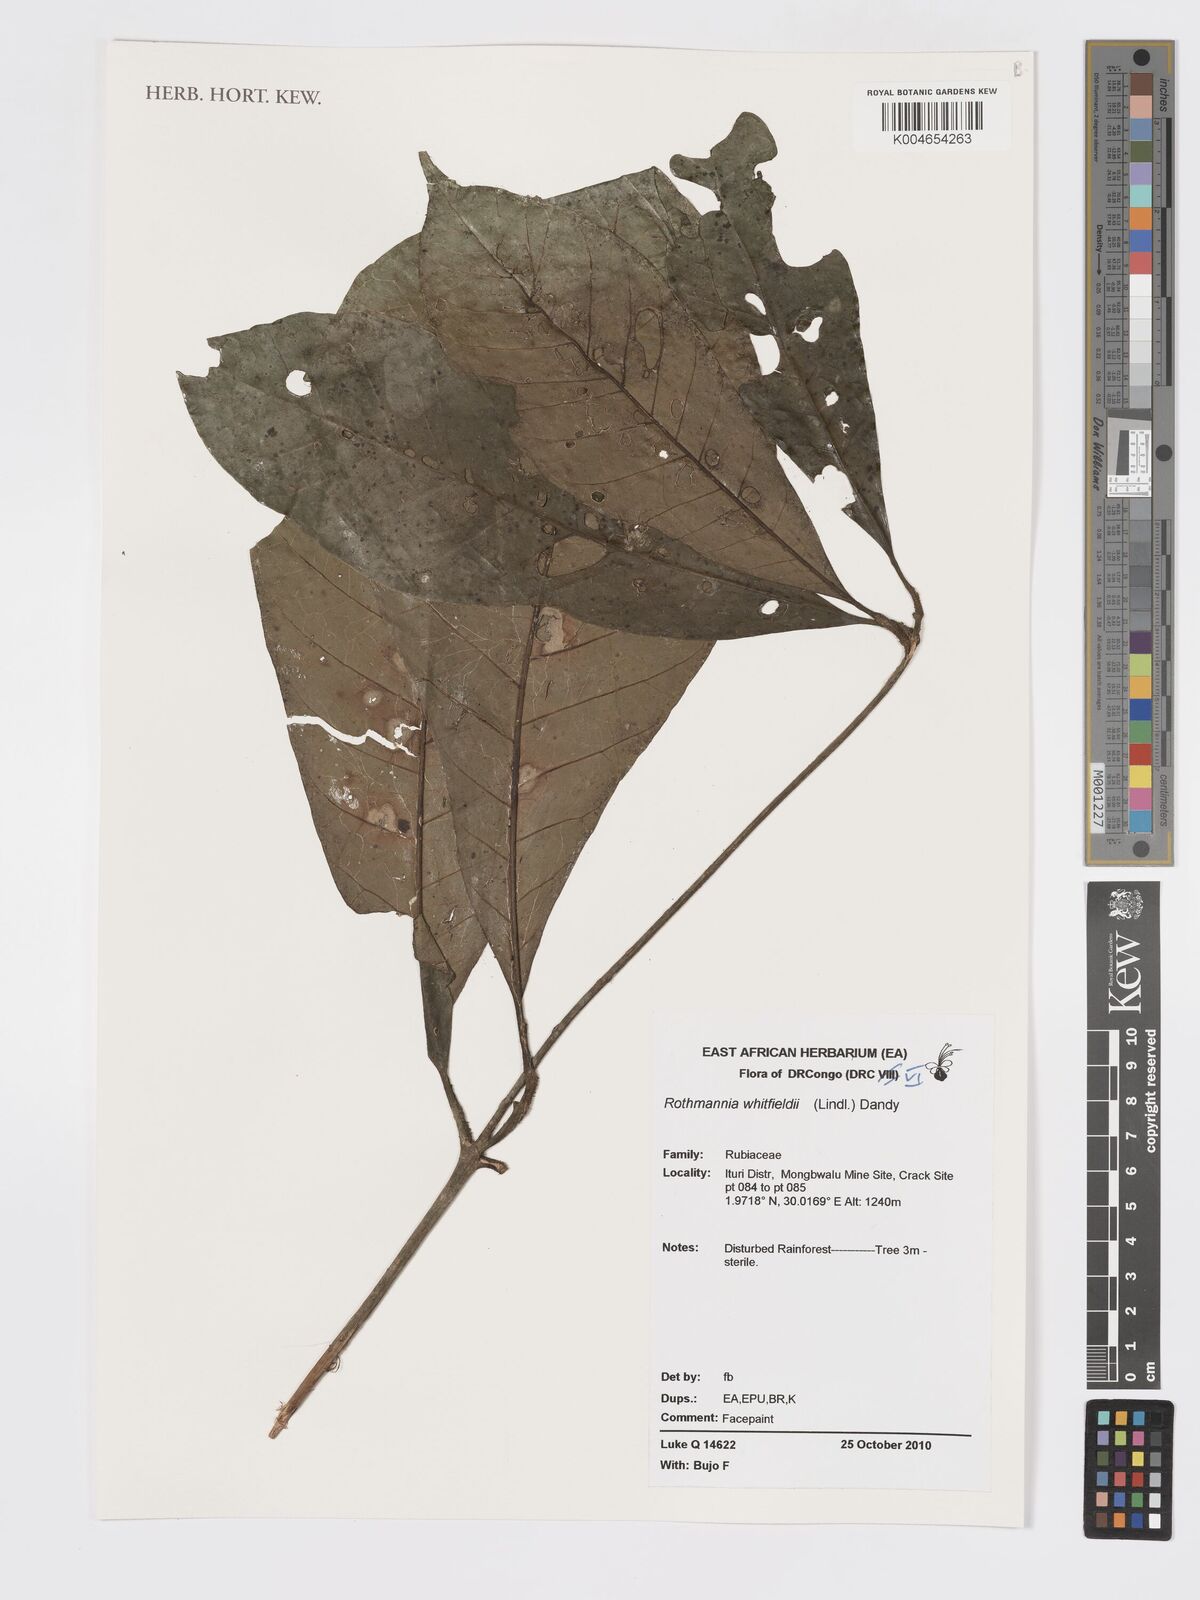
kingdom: Plantae
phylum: Tracheophyta
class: Magnoliopsida
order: Gentianales
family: Rubiaceae
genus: Rothmannia
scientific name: Rothmannia whitfieldii
